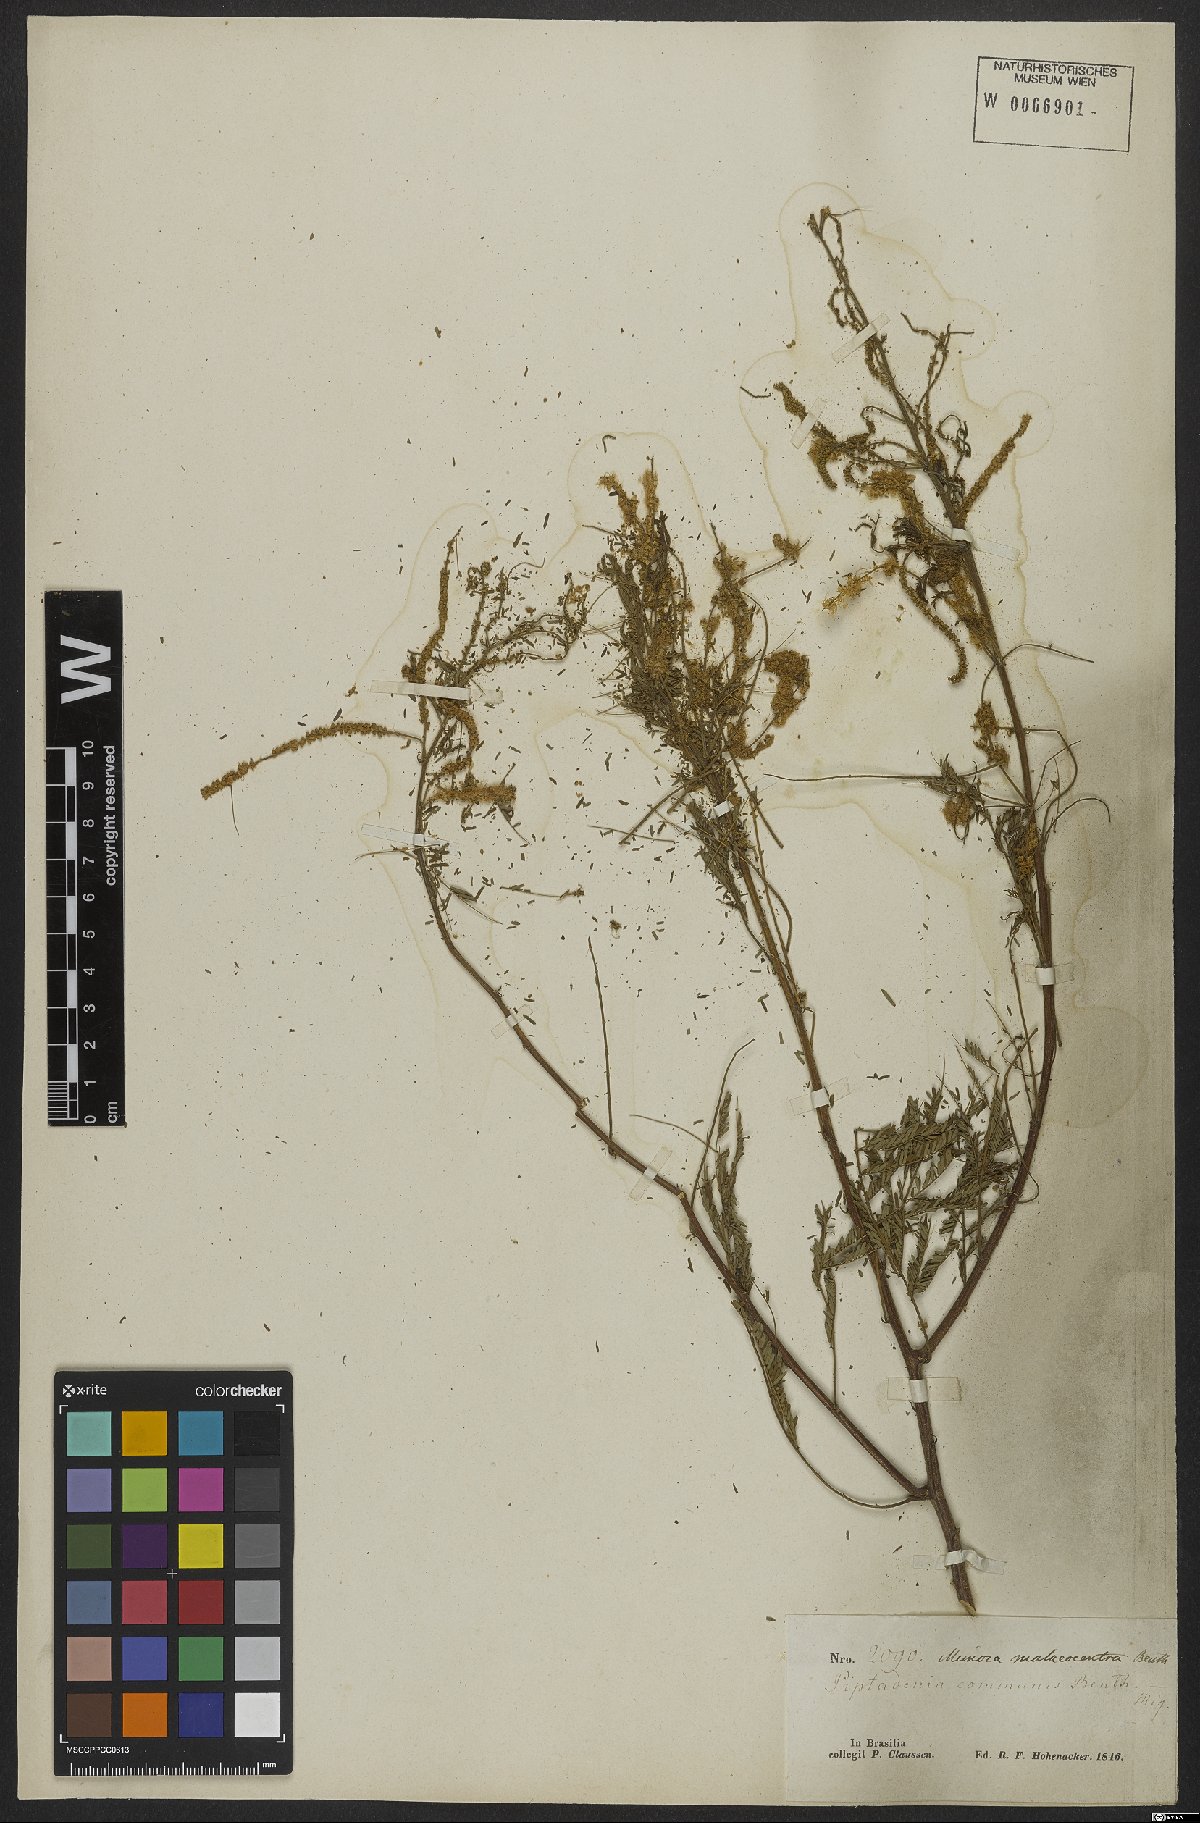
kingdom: Plantae
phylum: Tracheophyta
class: Magnoliopsida
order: Fabales
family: Fabaceae
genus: Mimosa
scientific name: Mimosa arenosa
